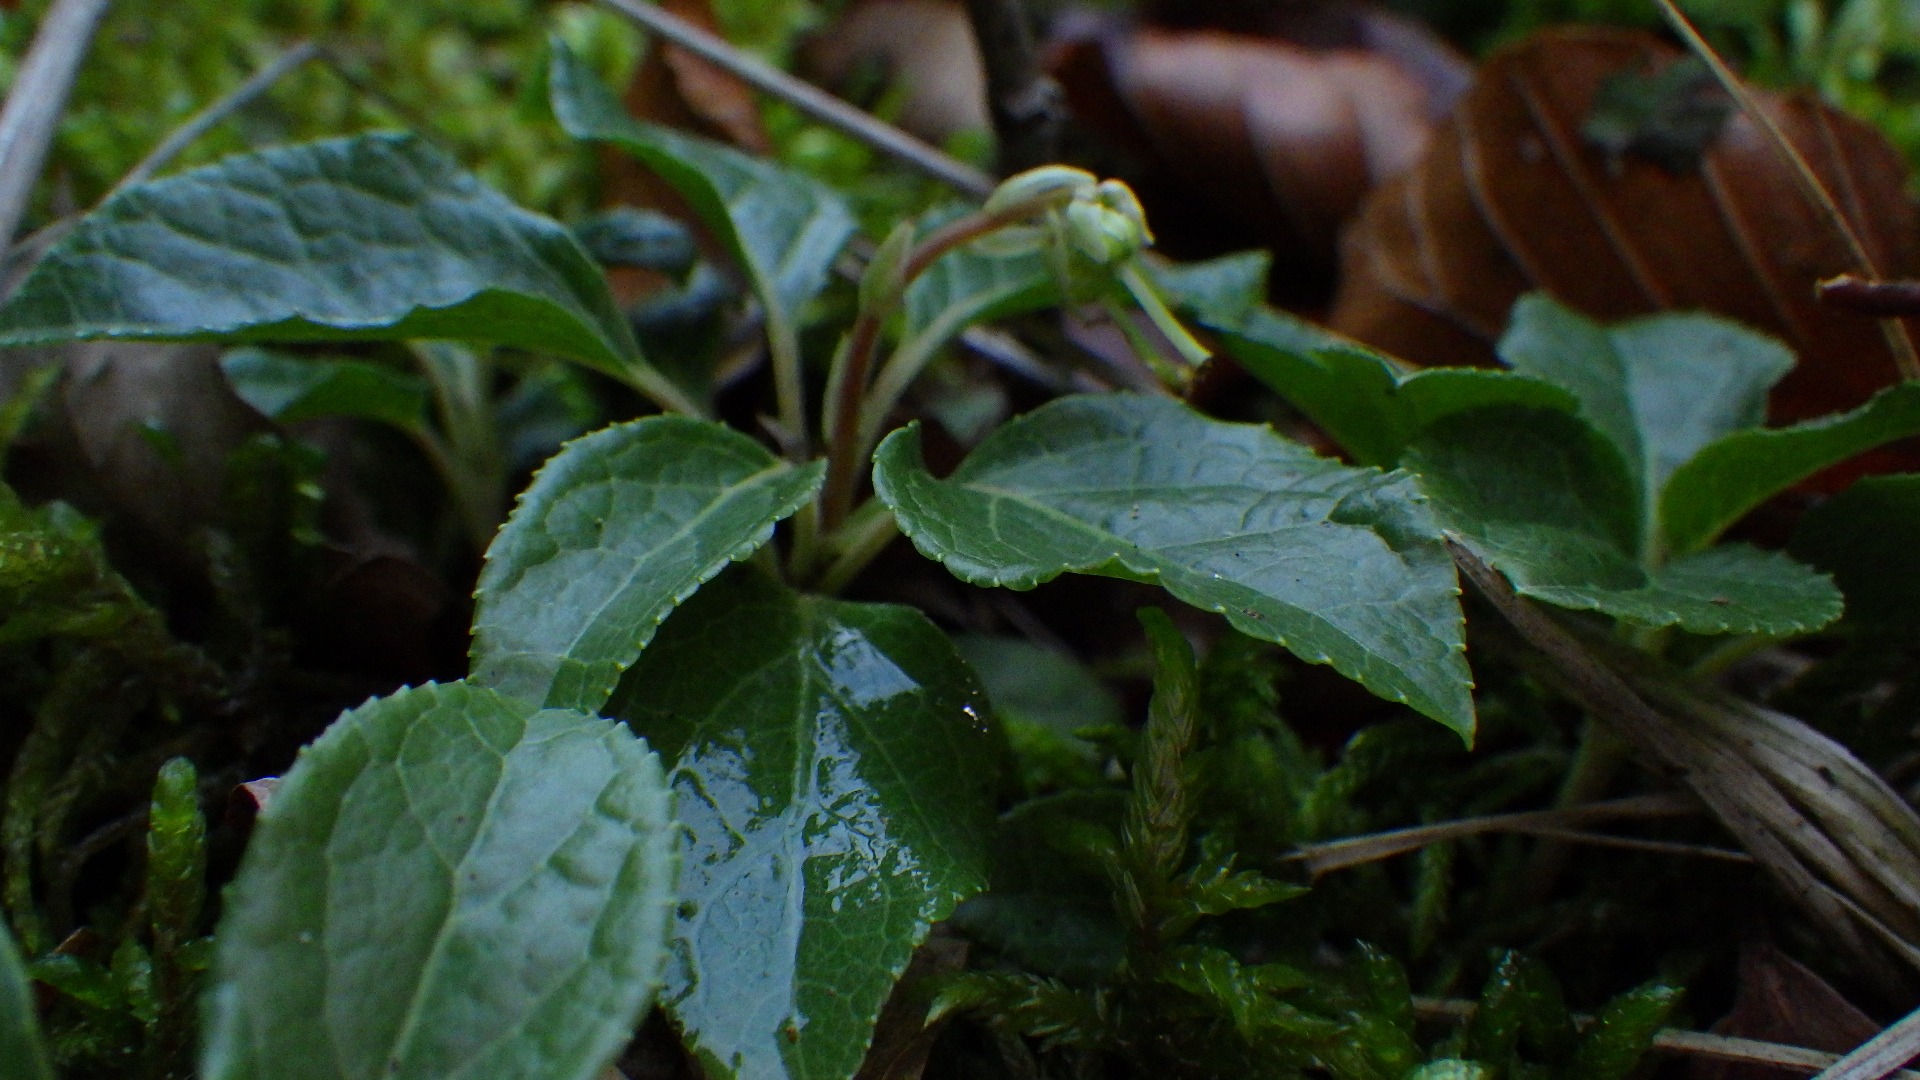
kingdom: Plantae
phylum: Tracheophyta
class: Magnoliopsida
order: Ericales
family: Ericaceae
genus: Orthilia
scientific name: Orthilia secunda
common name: Ensidig vintergrøn
